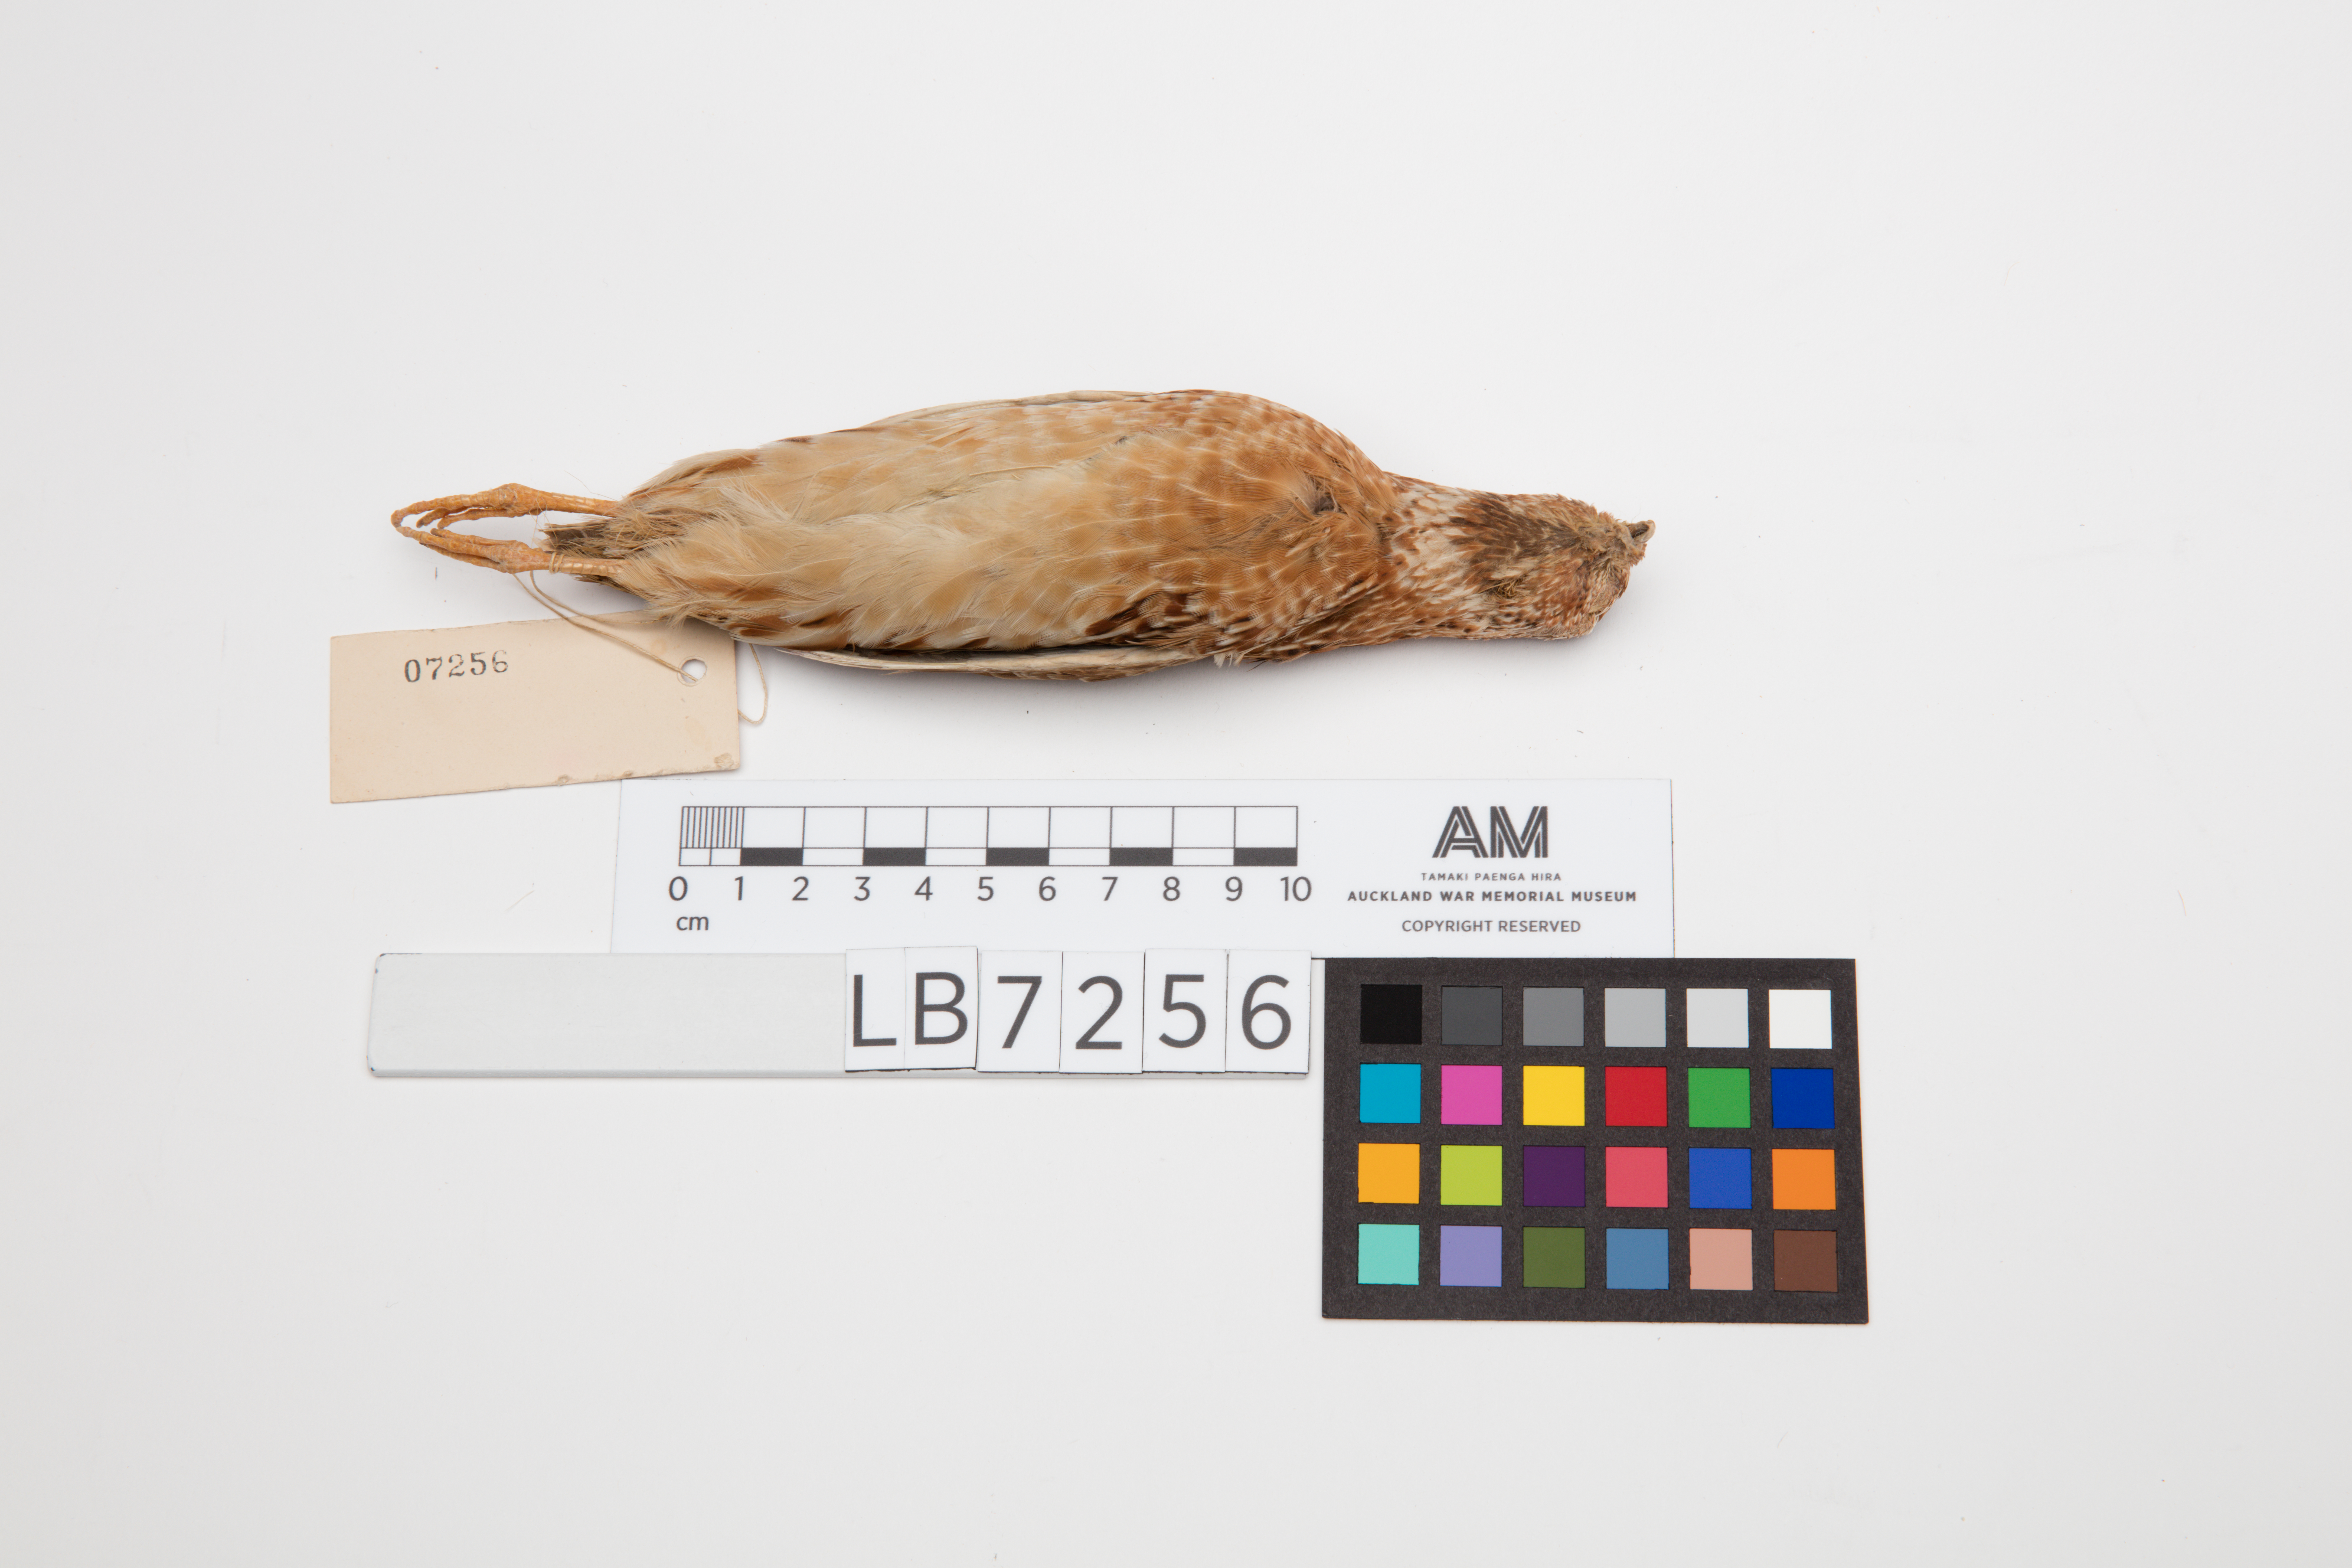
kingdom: Animalia
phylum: Chordata
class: Aves
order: Galliformes
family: Phasianidae
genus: Coturnix
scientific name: Coturnix coturnix
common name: Common quail
